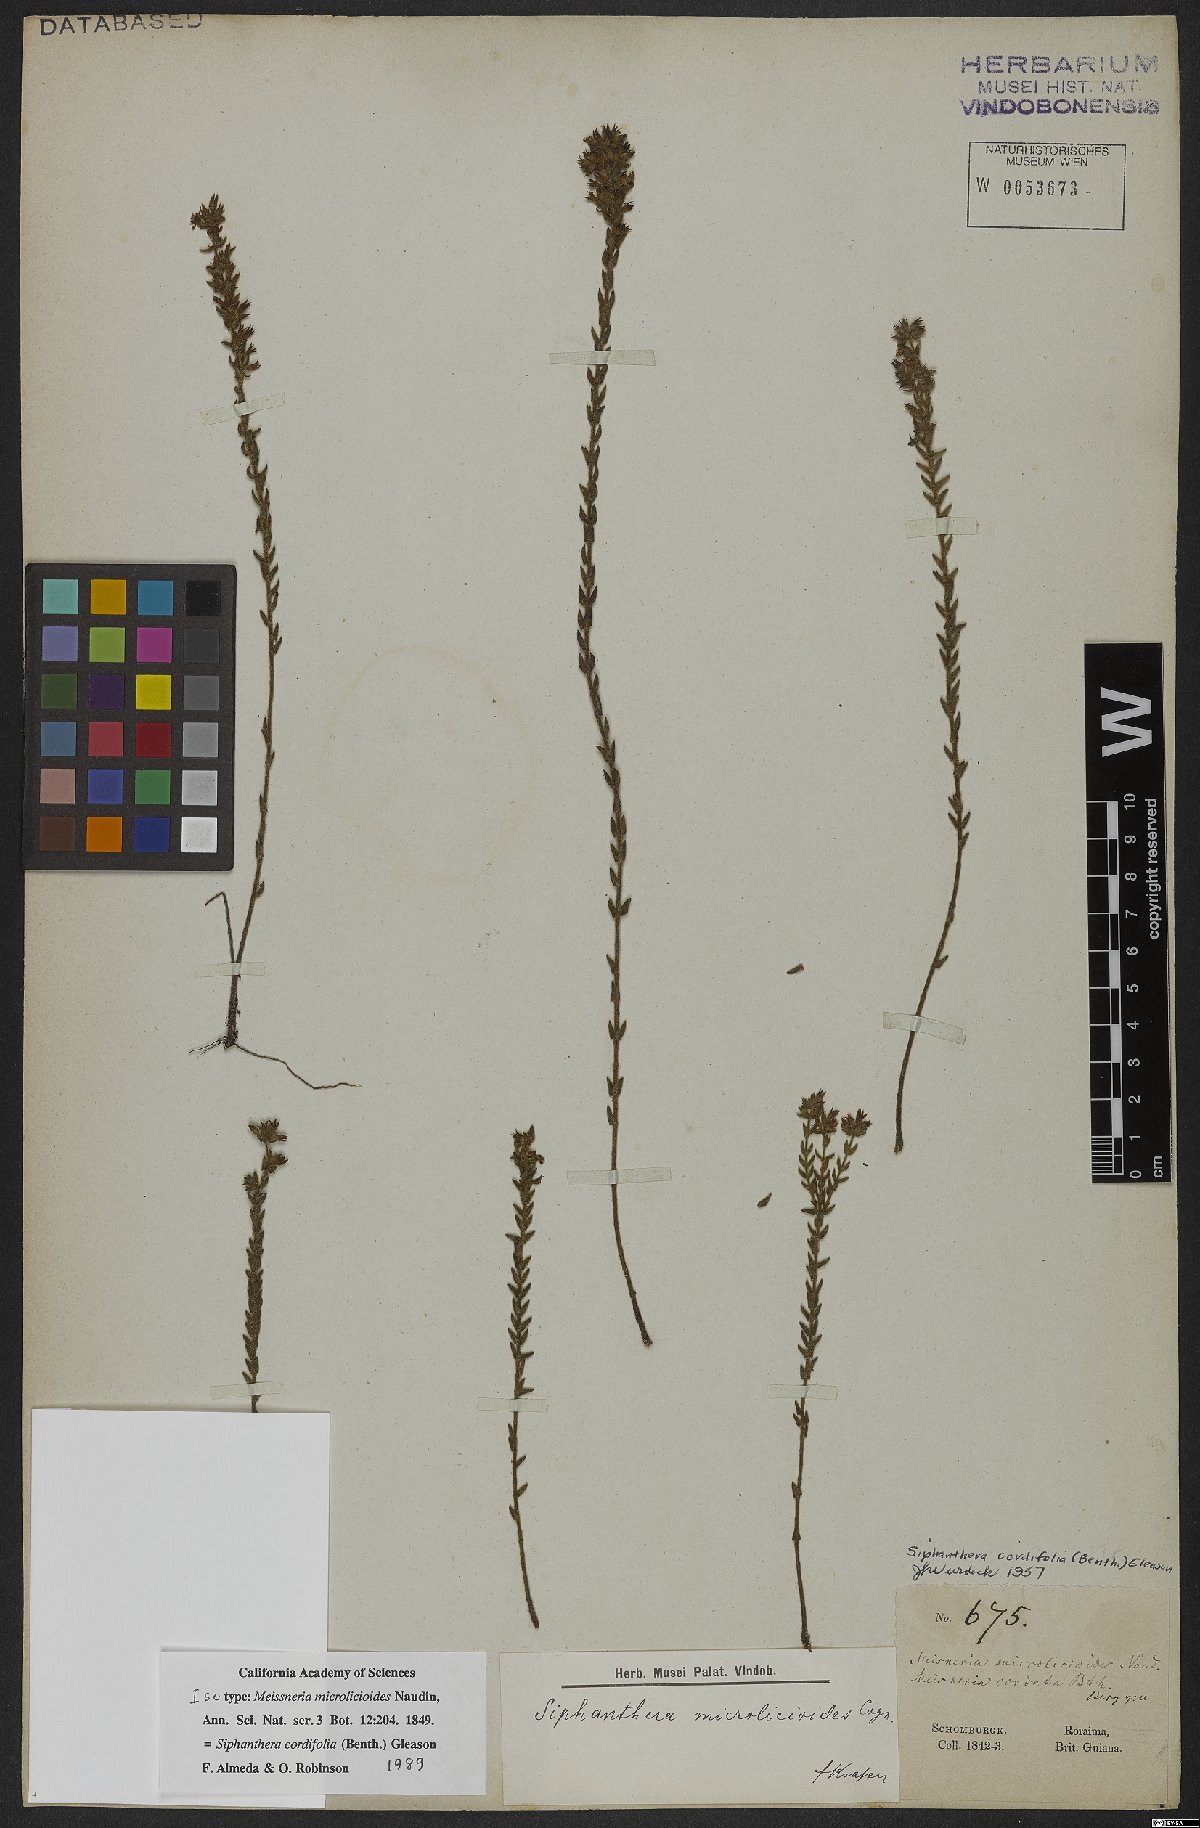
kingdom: Plantae
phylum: Tracheophyta
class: Magnoliopsida
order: Myrtales
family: Melastomataceae
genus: Siphanthera
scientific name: Siphanthera cordifolia
